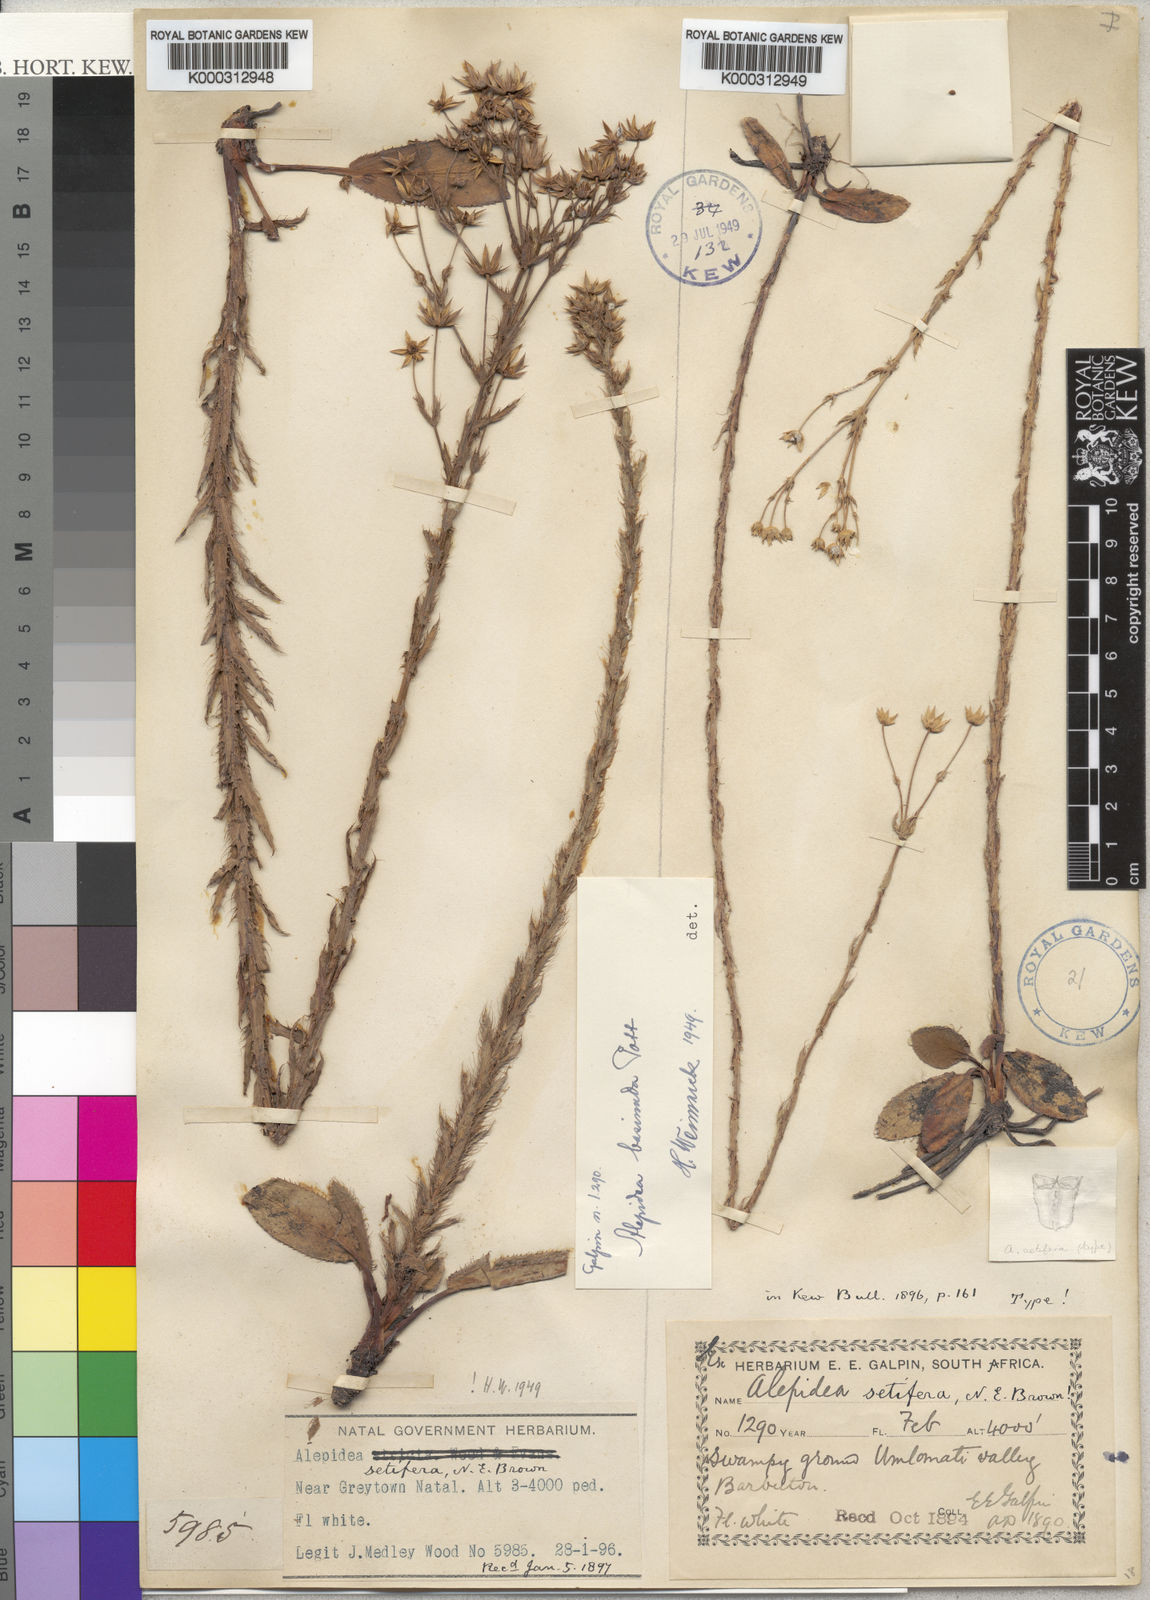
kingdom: Plantae
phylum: Tracheophyta
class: Magnoliopsida
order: Apiales
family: Apiaceae
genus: Alepidea
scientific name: Alepidea setifera
